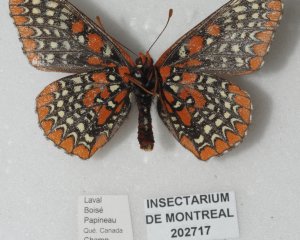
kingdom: Animalia
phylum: Arthropoda
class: Insecta
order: Lepidoptera
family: Nymphalidae
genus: Euphydryas
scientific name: Euphydryas phaeton
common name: Baltimore Checkerspot
